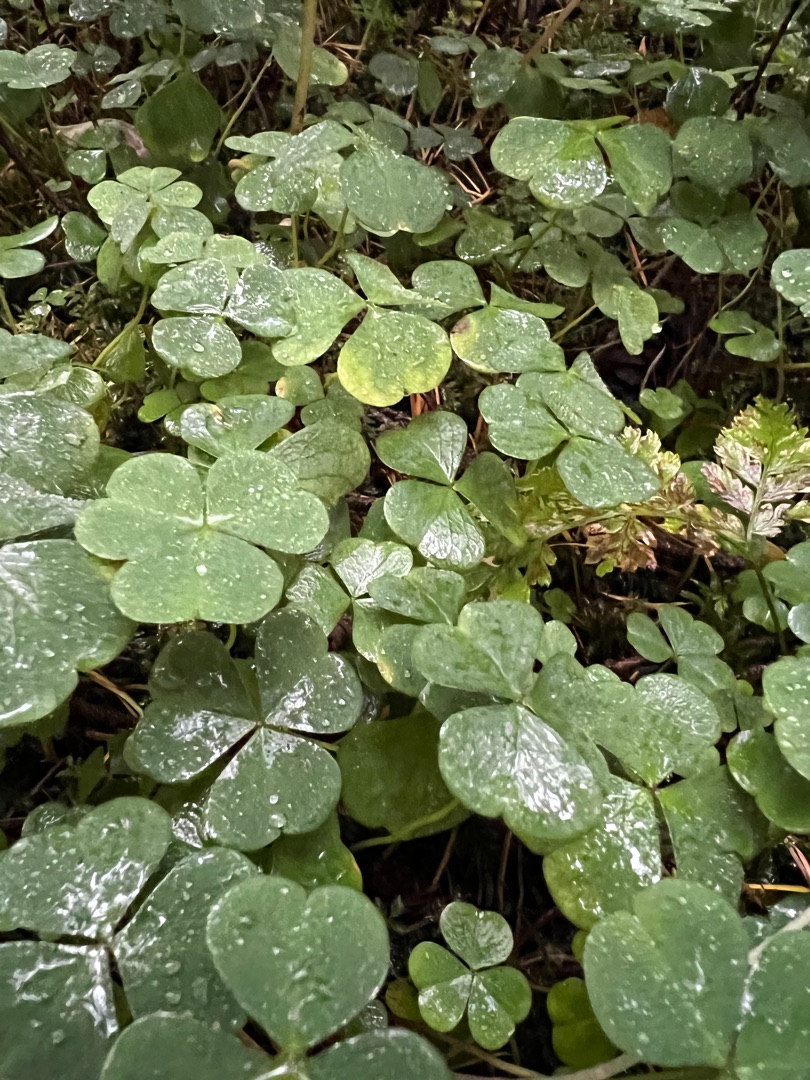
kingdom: Plantae
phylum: Tracheophyta
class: Magnoliopsida
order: Oxalidales
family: Oxalidaceae
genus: Oxalis
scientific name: Oxalis acetosella
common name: Skovsyre
